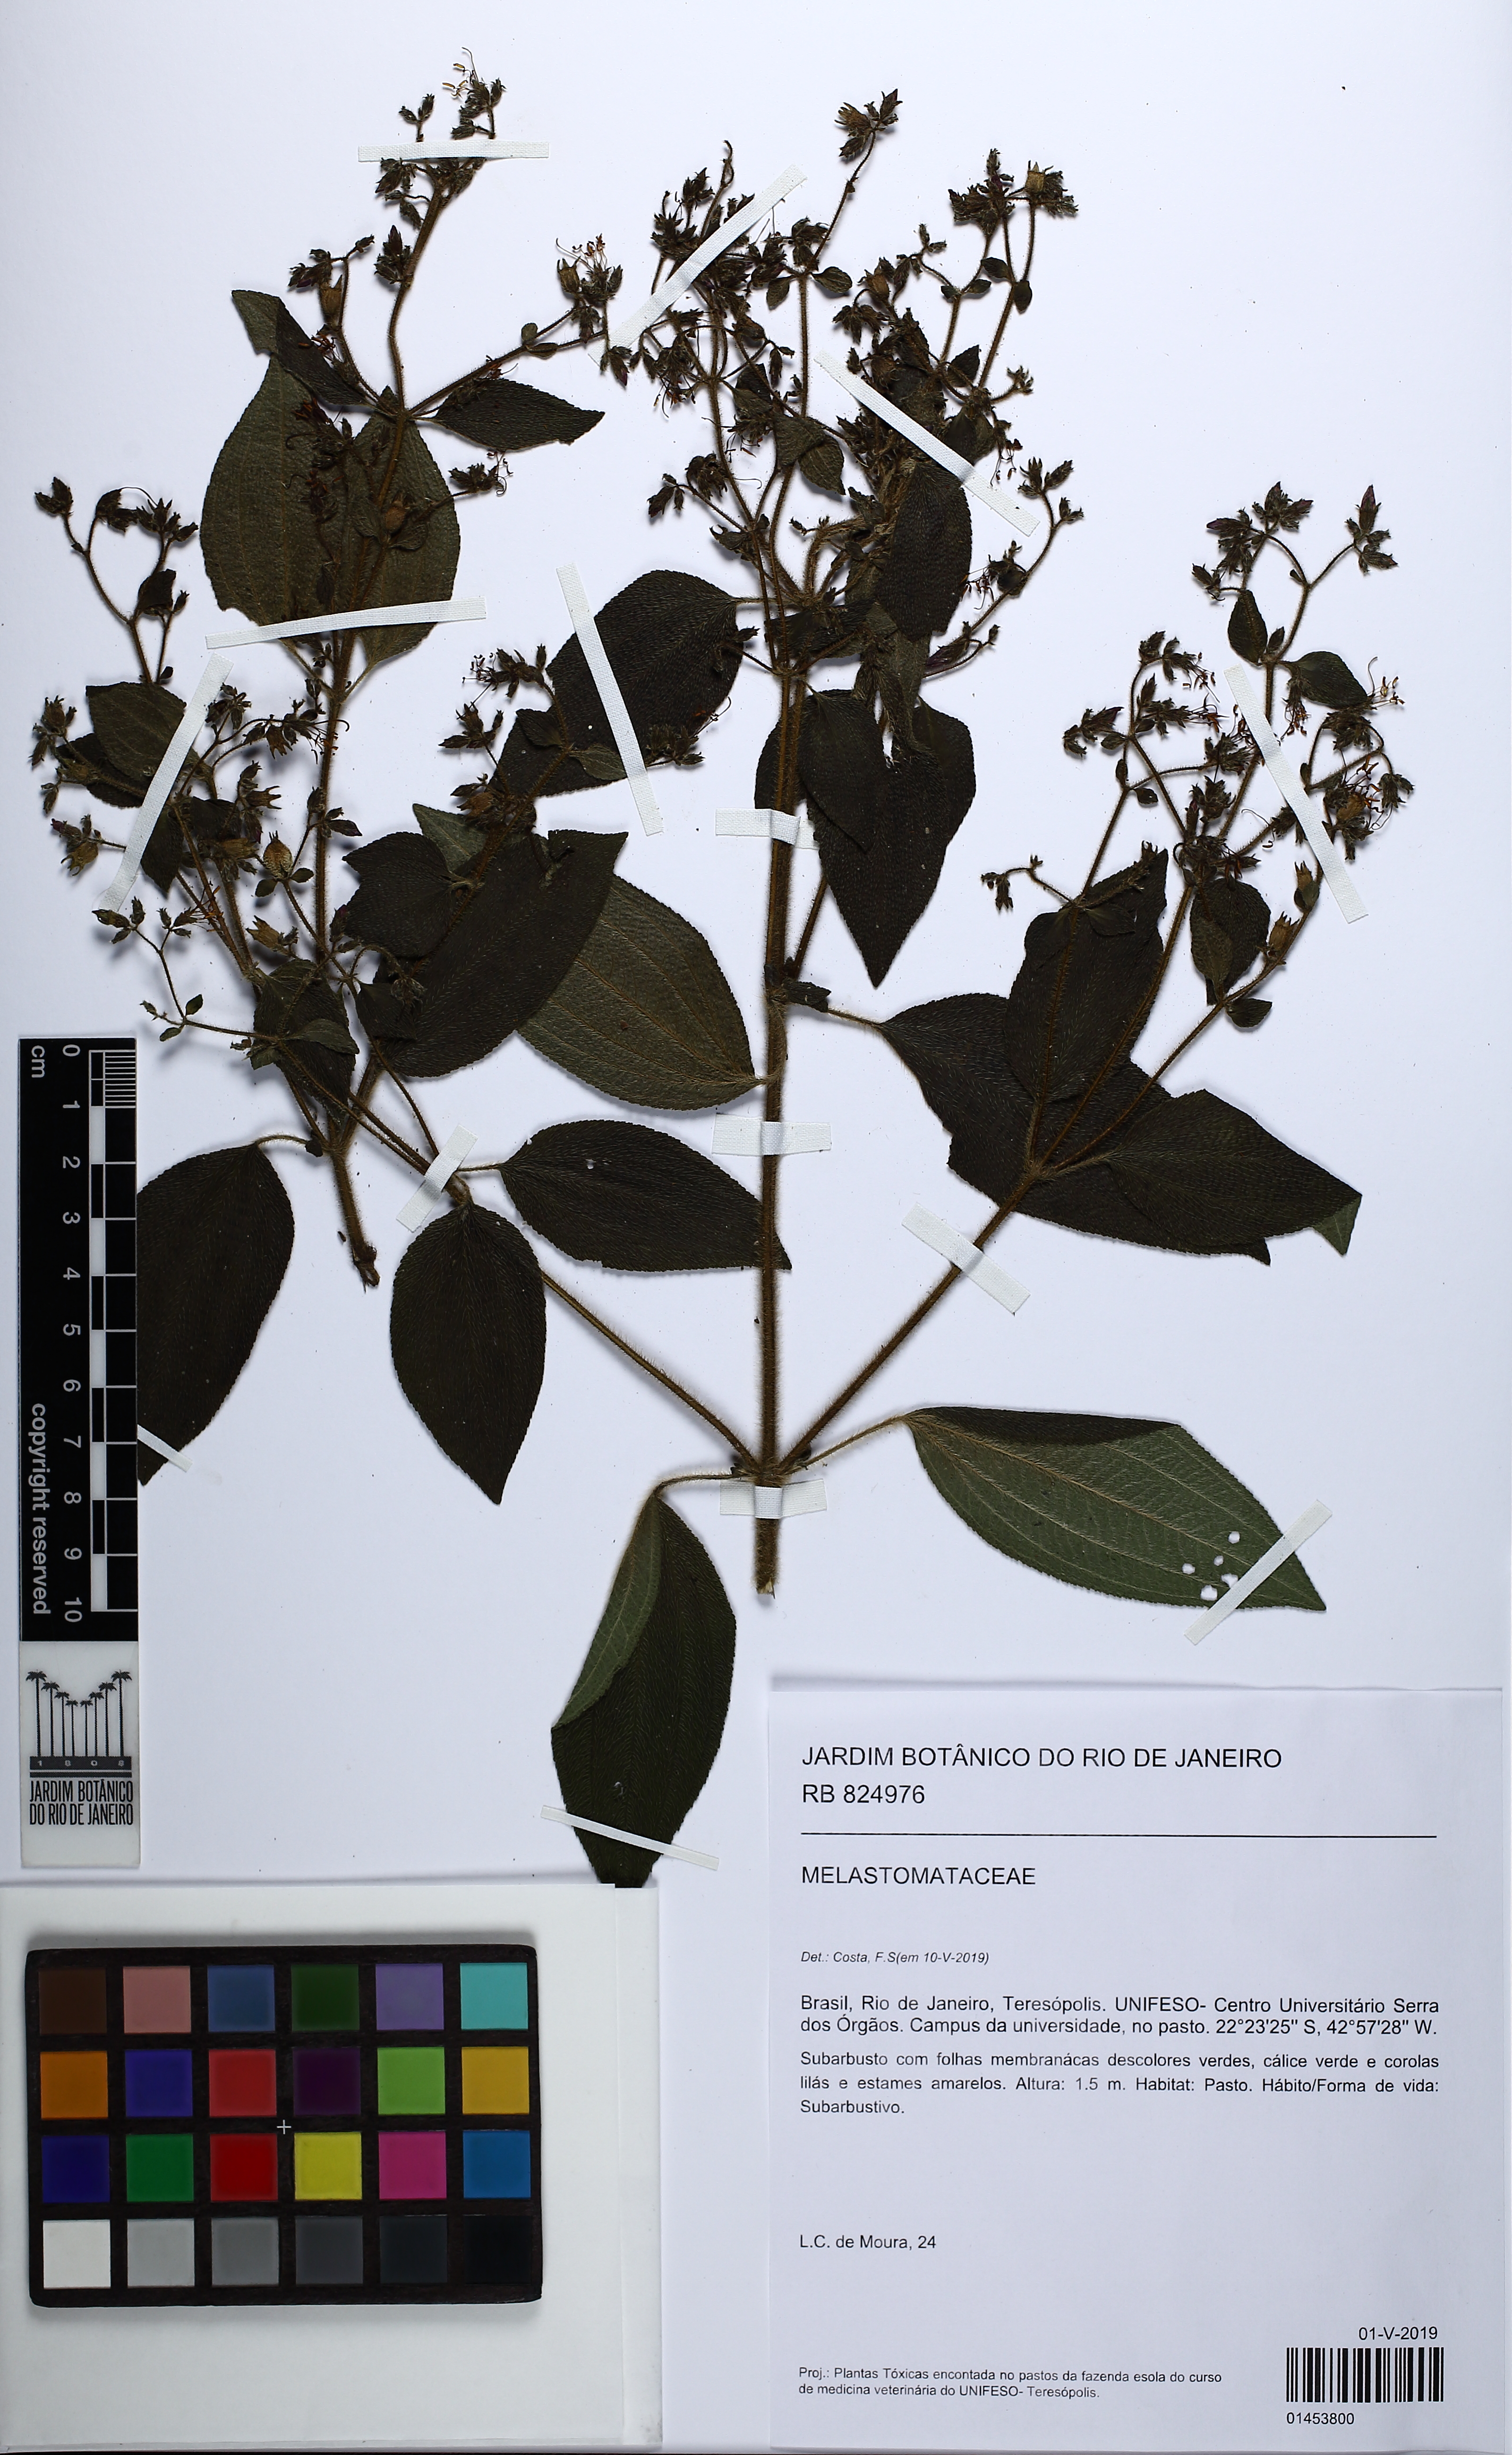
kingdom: Plantae
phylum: Tracheophyta
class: Magnoliopsida
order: Myrtales
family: Melastomataceae
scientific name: Melastomataceae
